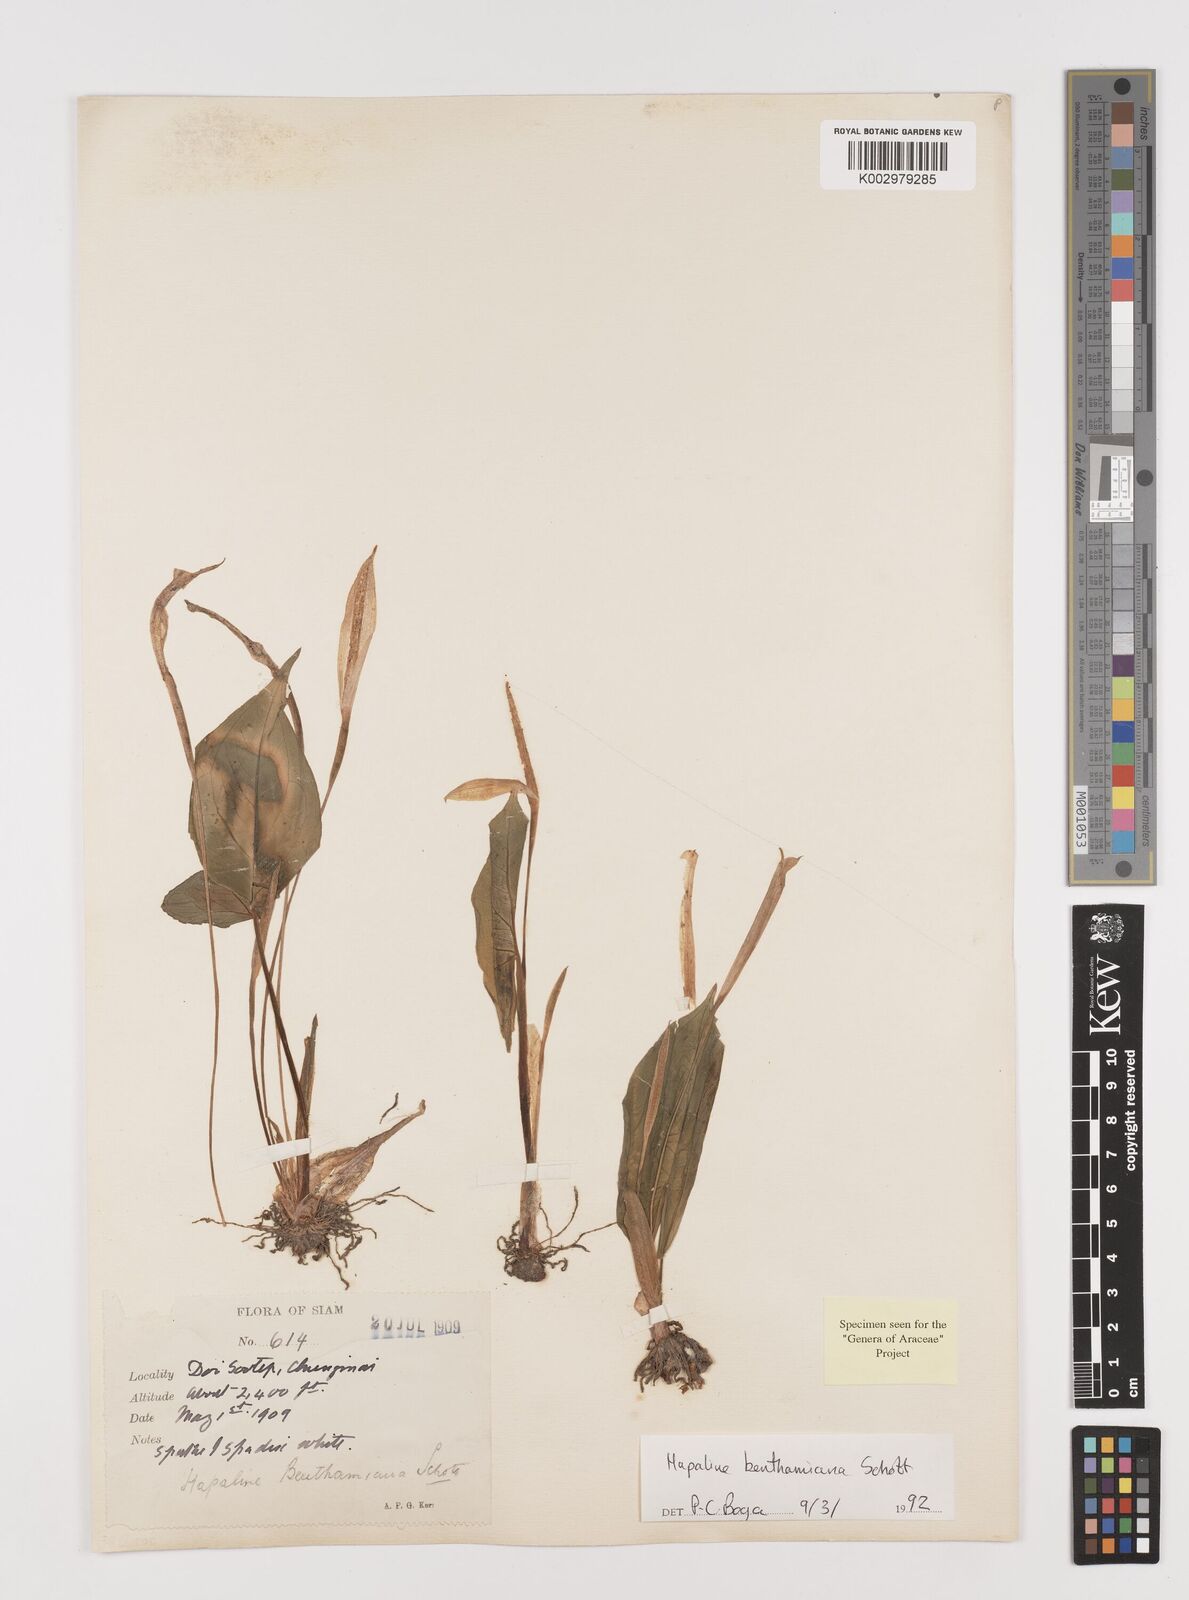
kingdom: Plantae
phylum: Tracheophyta
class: Liliopsida
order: Alismatales
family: Araceae
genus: Hapaline
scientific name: Hapaline benthamiana
